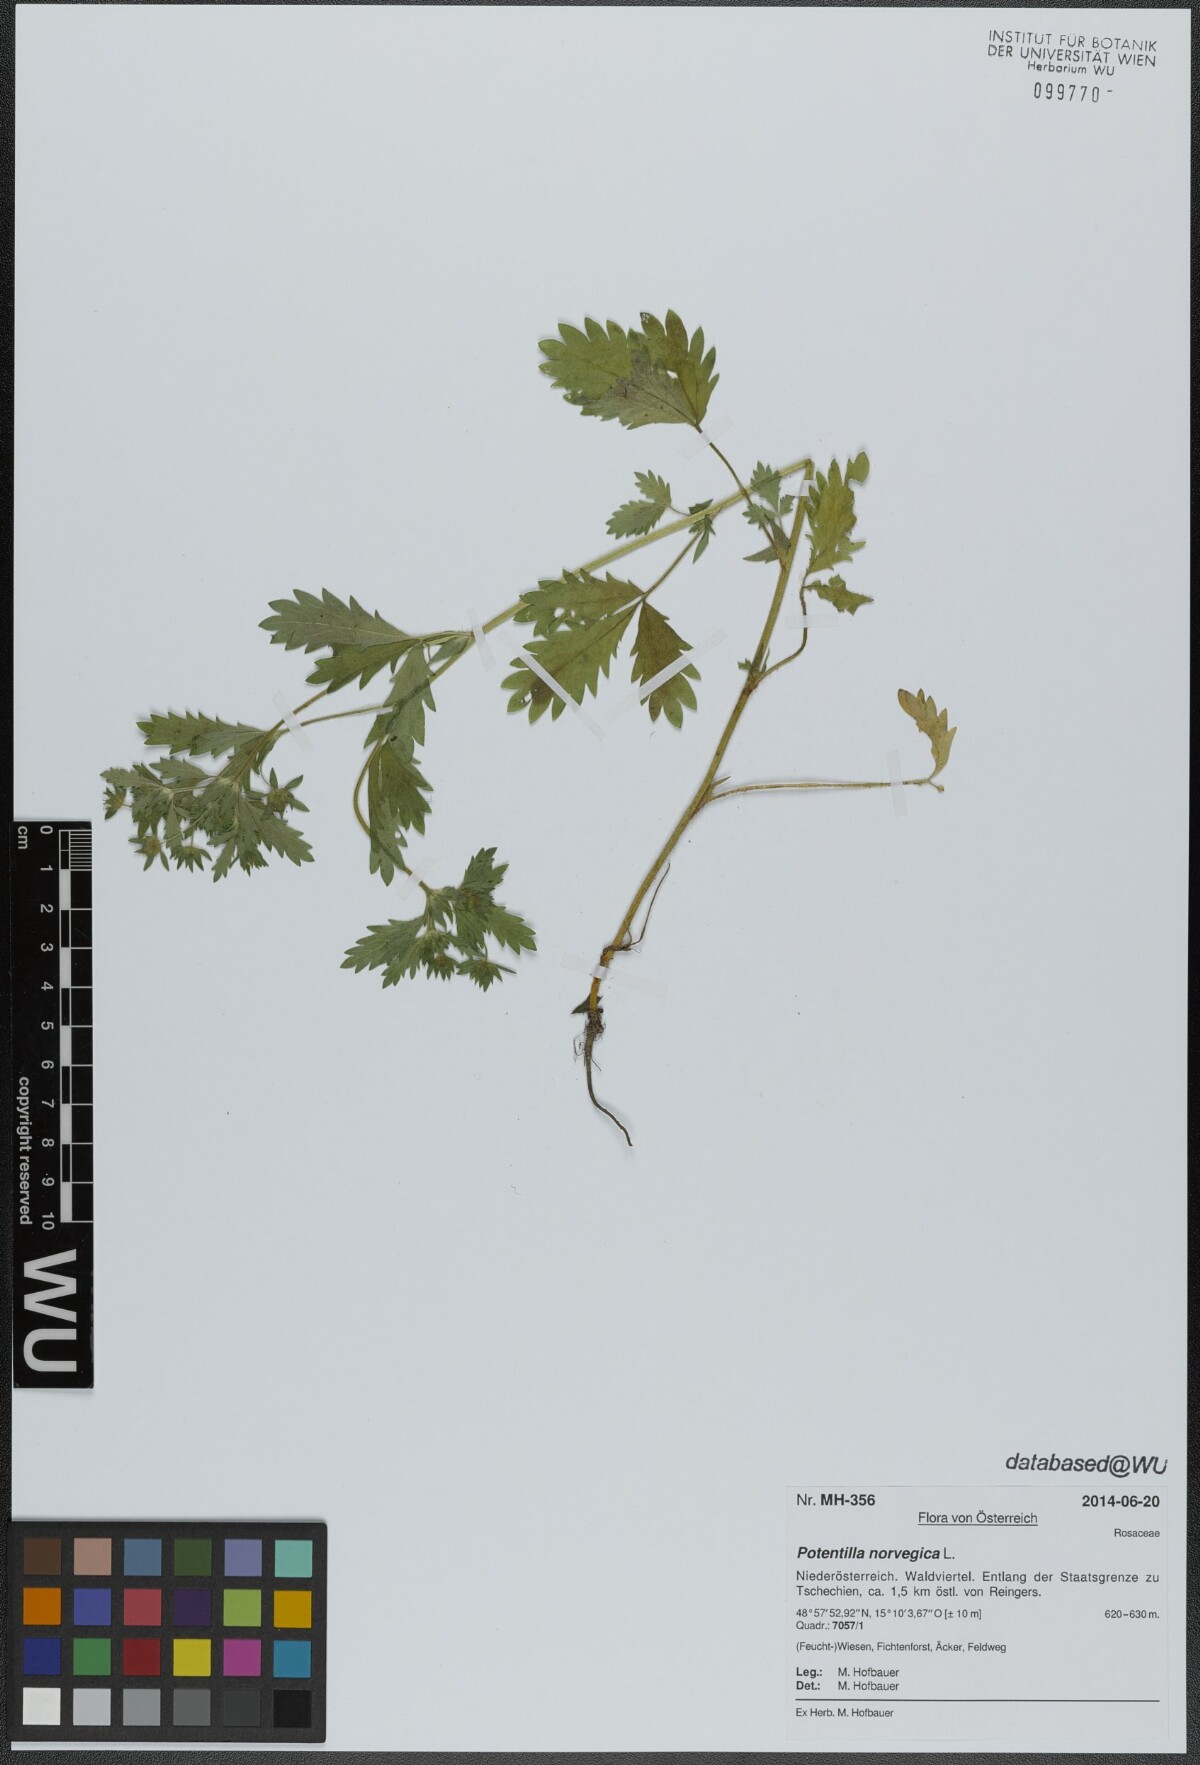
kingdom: Plantae
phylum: Tracheophyta
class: Magnoliopsida
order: Rosales
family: Rosaceae
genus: Potentilla
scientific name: Potentilla norvegica
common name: Ternate-leaved cinquefoil
